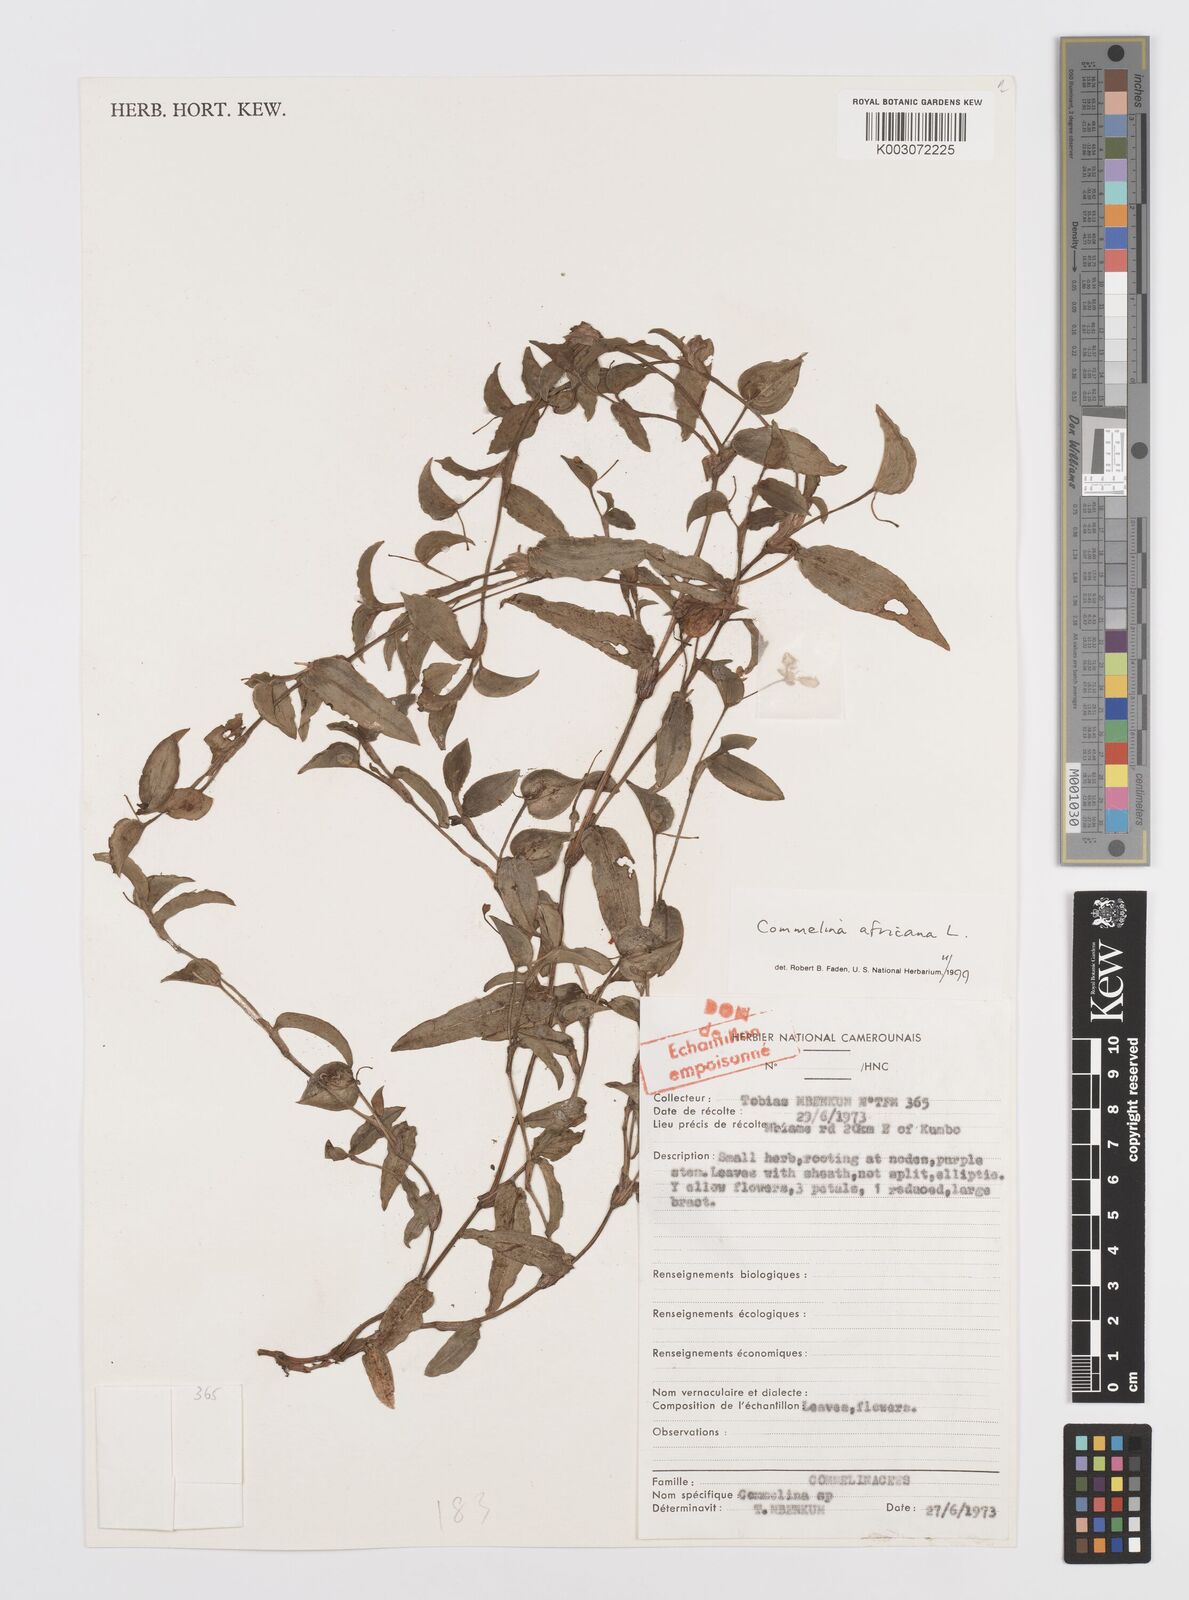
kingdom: Plantae
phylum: Tracheophyta
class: Liliopsida
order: Commelinales
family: Commelinaceae
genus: Commelina
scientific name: Commelina africana
